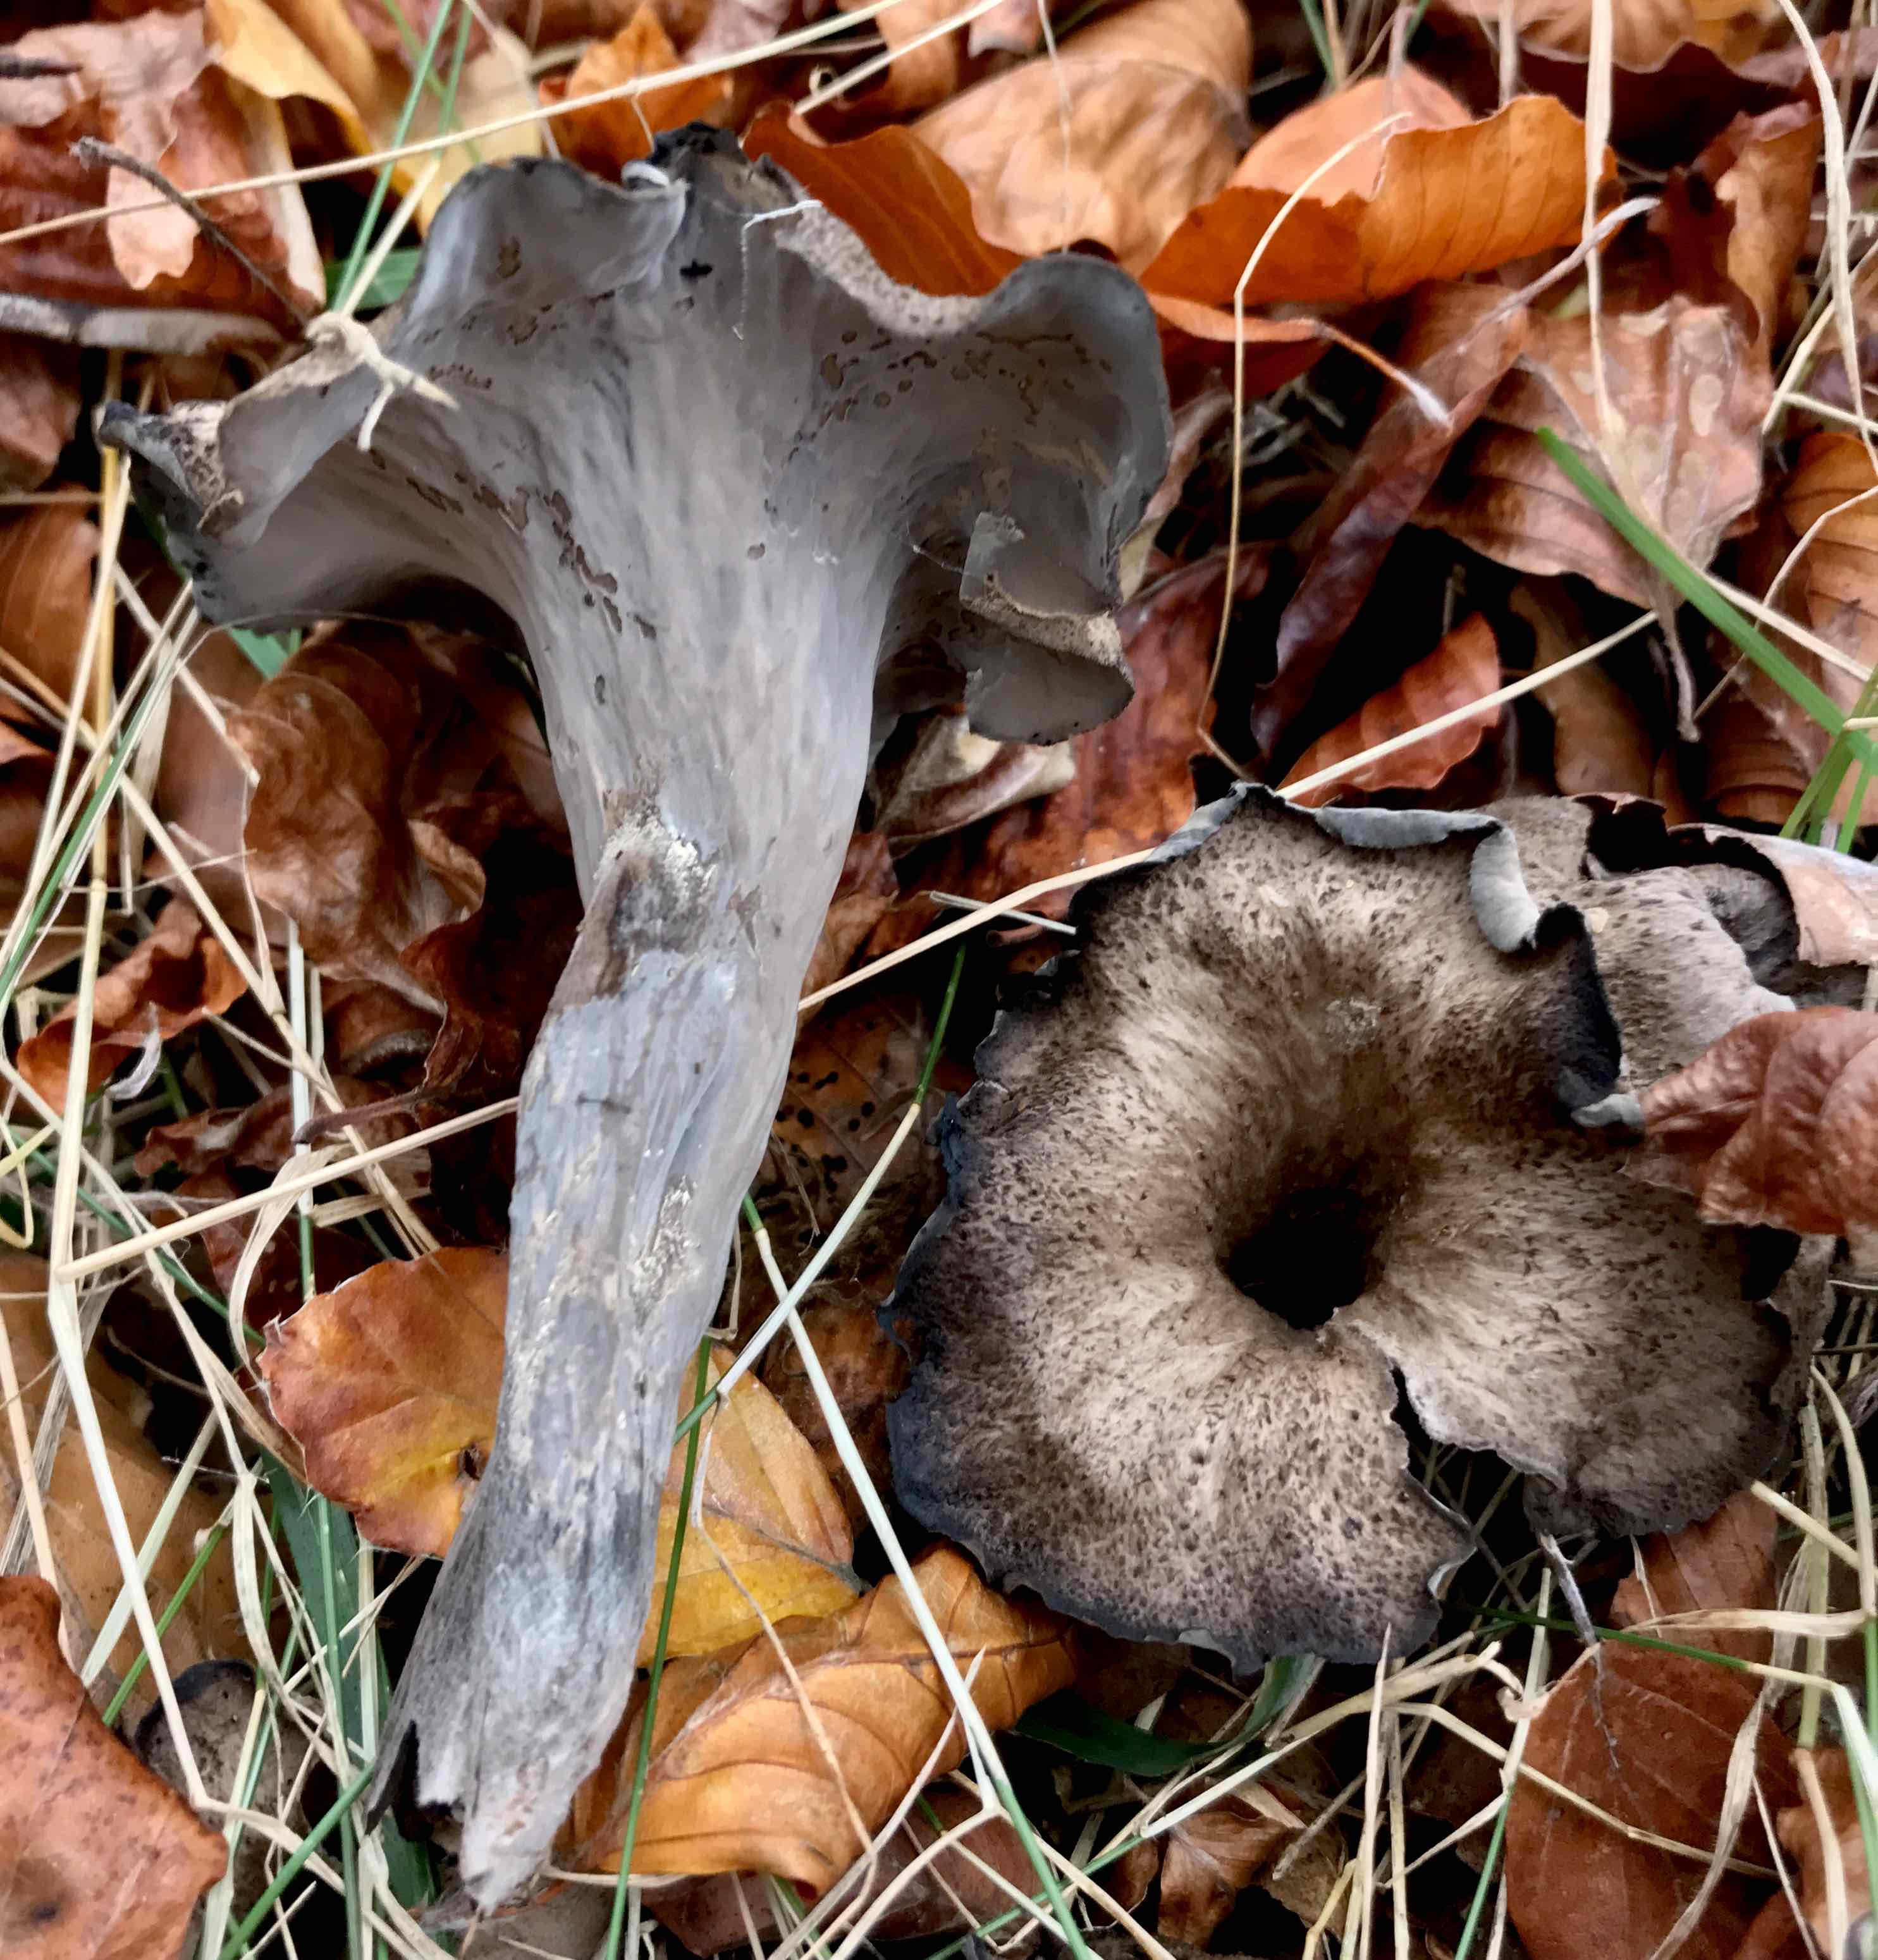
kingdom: Fungi
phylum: Basidiomycota
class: Agaricomycetes
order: Cantharellales
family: Hydnaceae
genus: Craterellus
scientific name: Craterellus cornucopioides
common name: trompetsvamp
